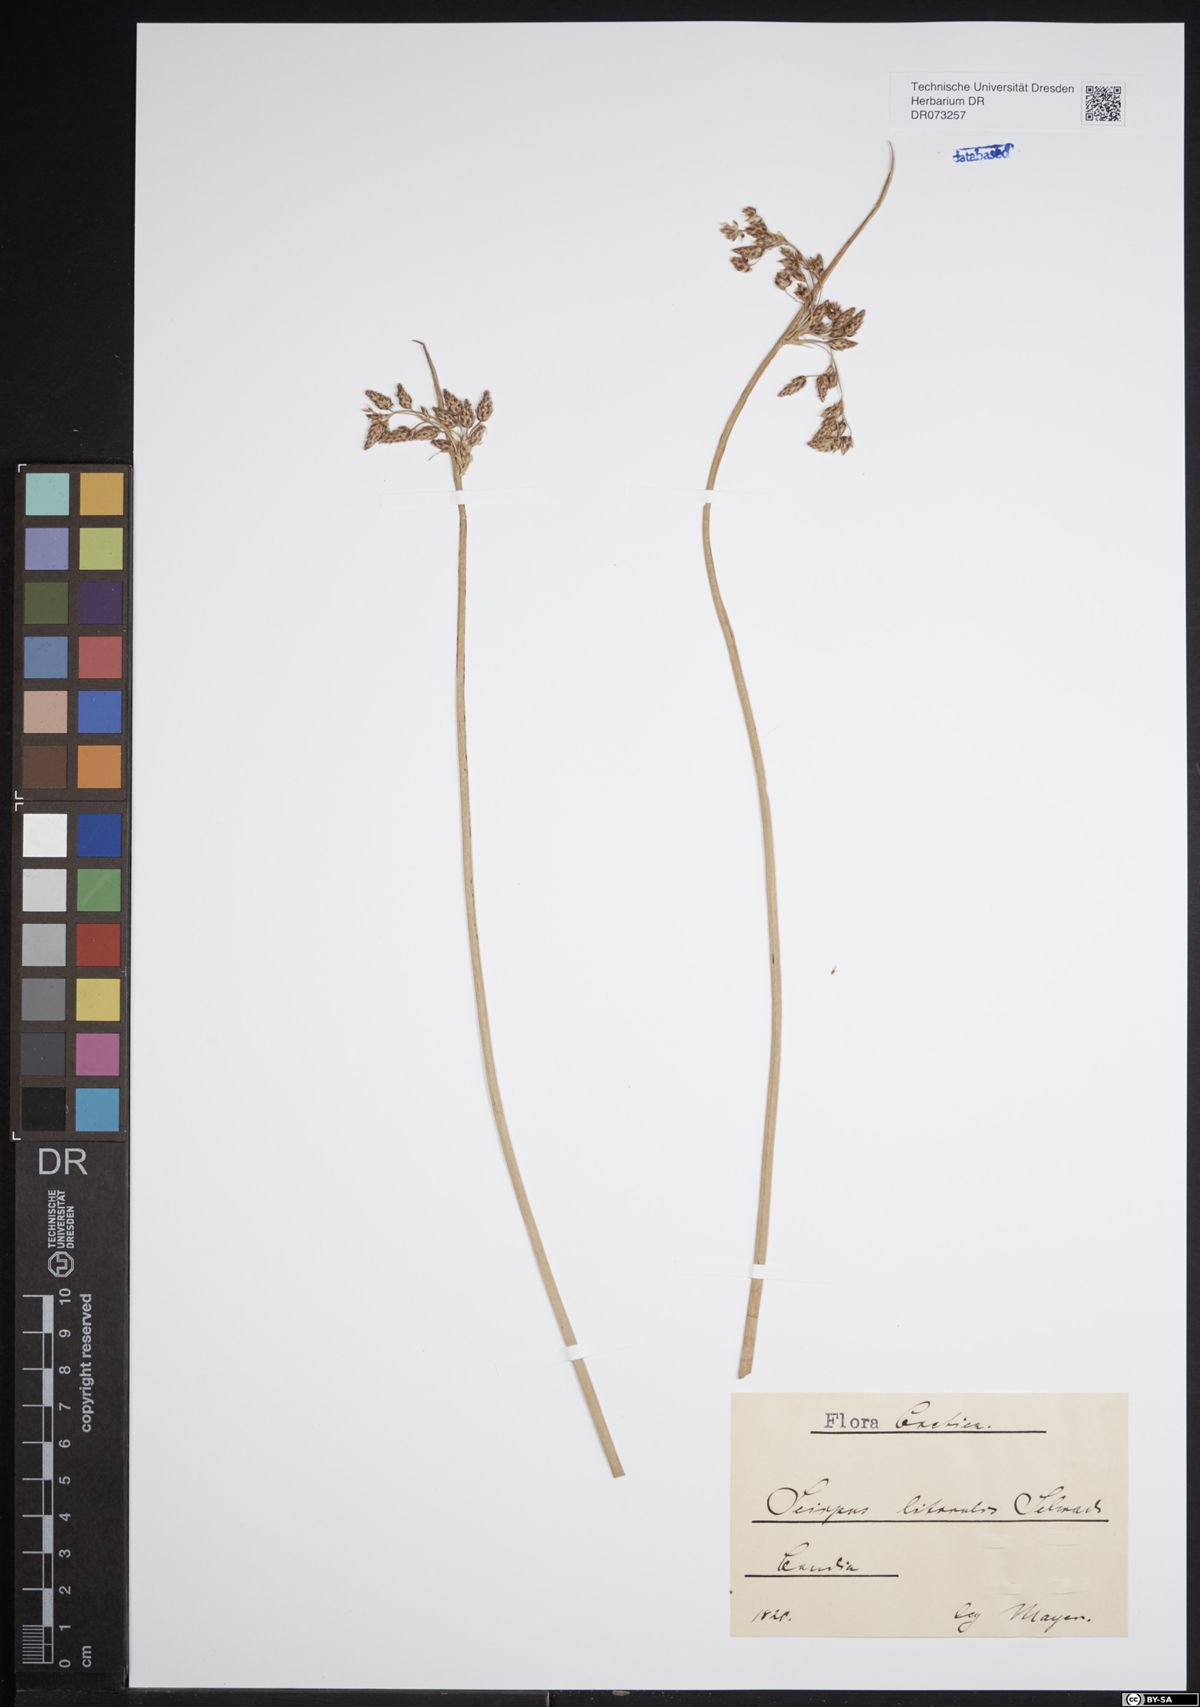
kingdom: Plantae
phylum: Tracheophyta
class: Liliopsida
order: Poales
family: Cyperaceae
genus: Schoenoplectus
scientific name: Schoenoplectus litoralis
